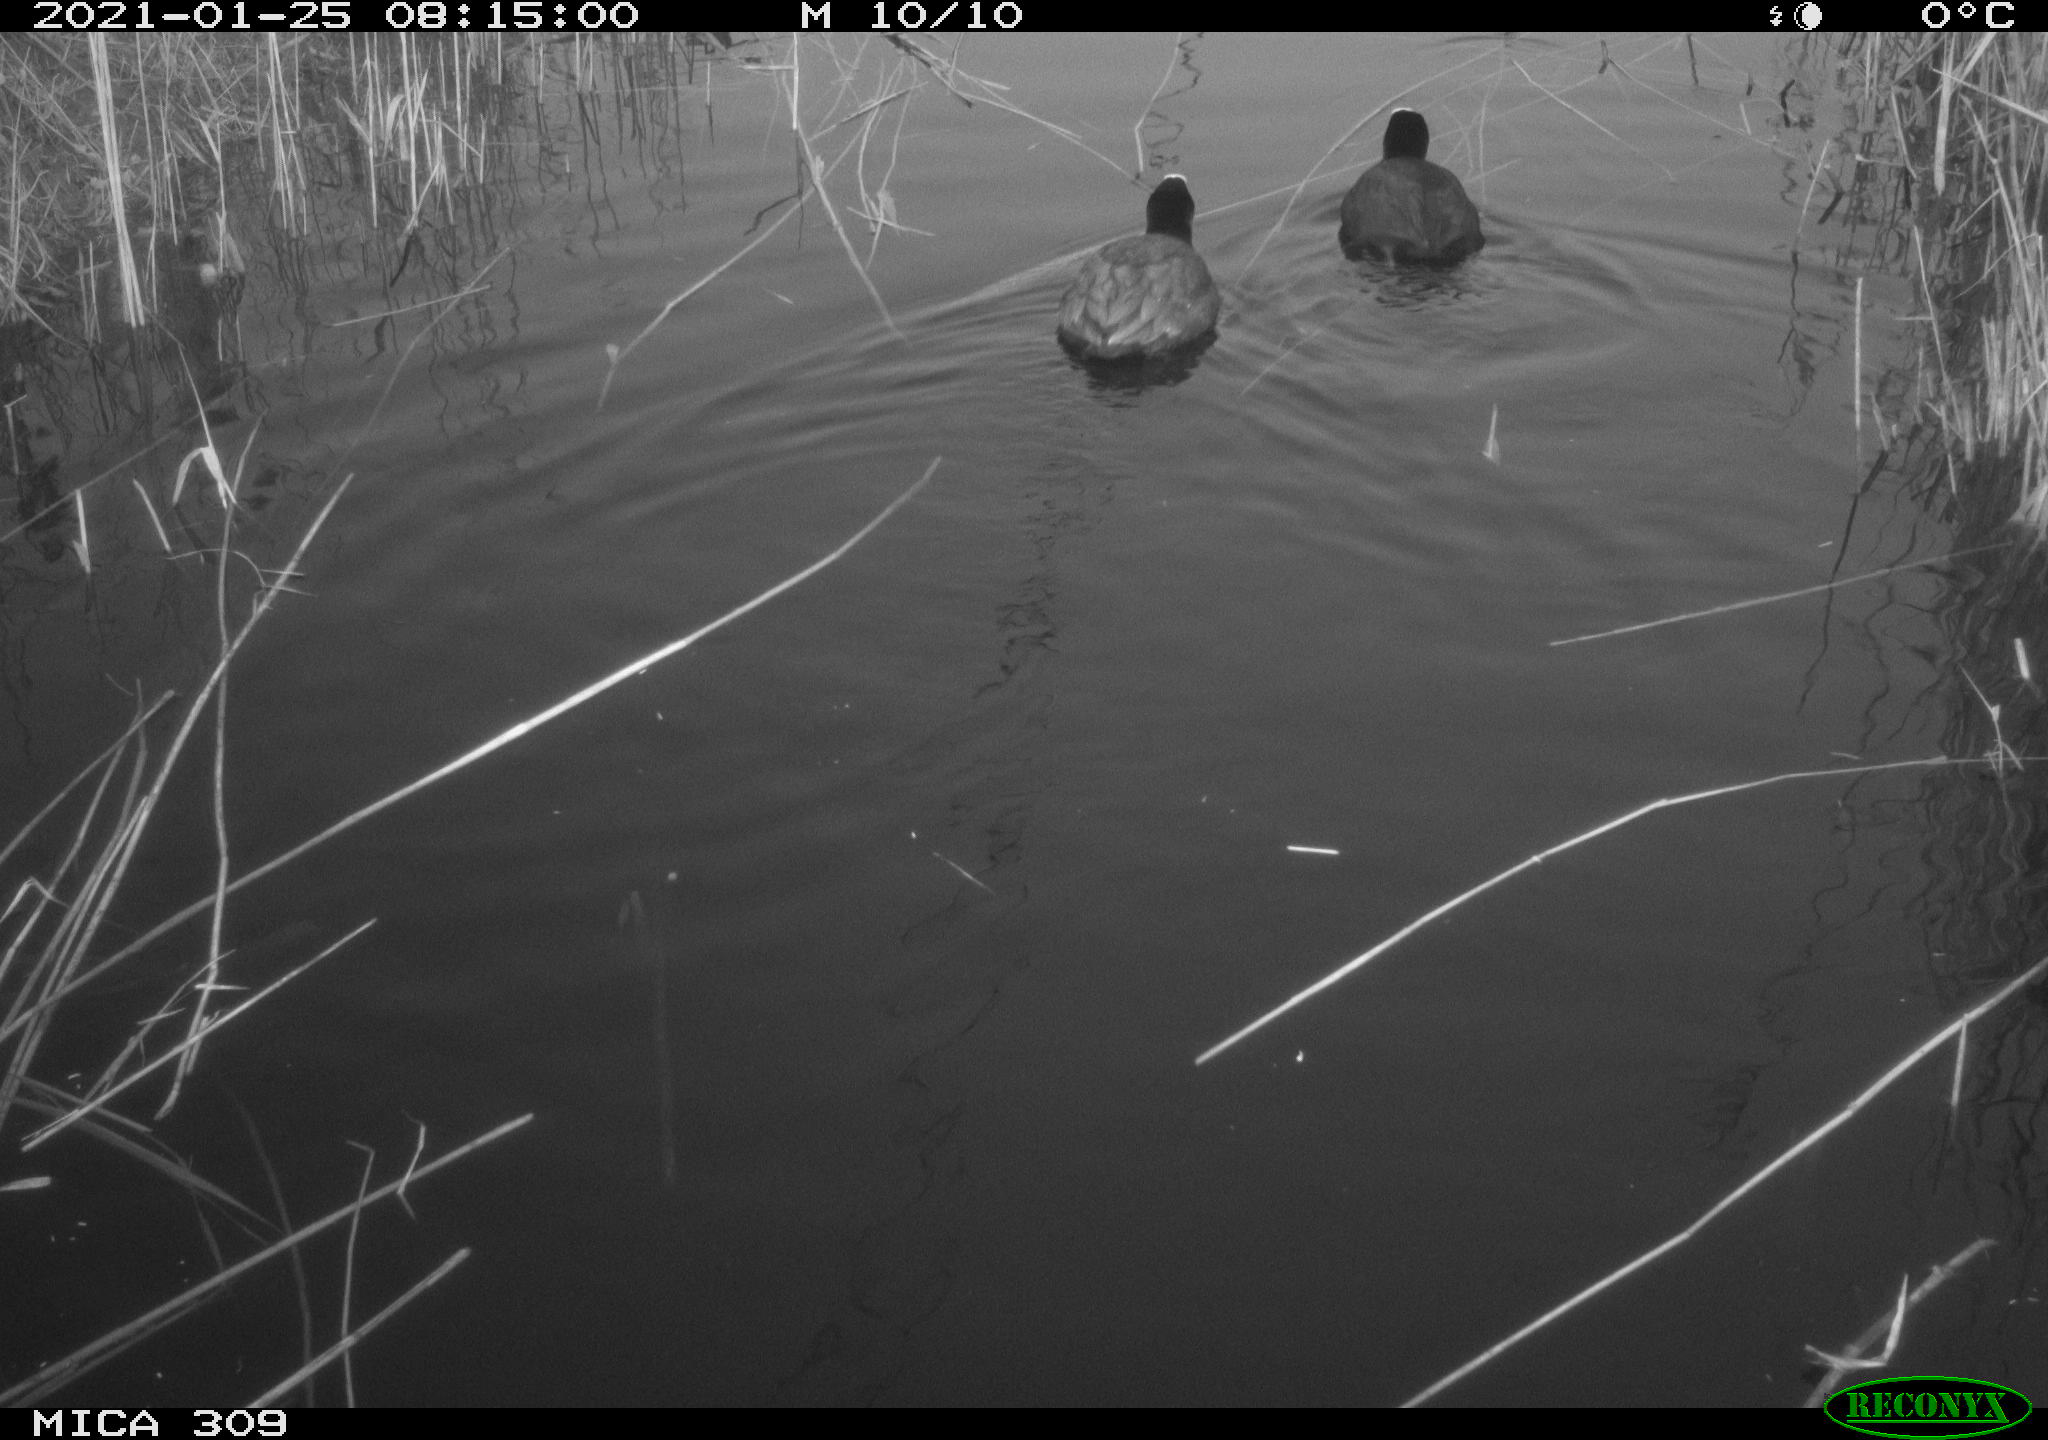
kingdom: Animalia
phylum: Chordata
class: Aves
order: Gruiformes
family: Rallidae
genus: Fulica
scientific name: Fulica atra
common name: Eurasian coot
